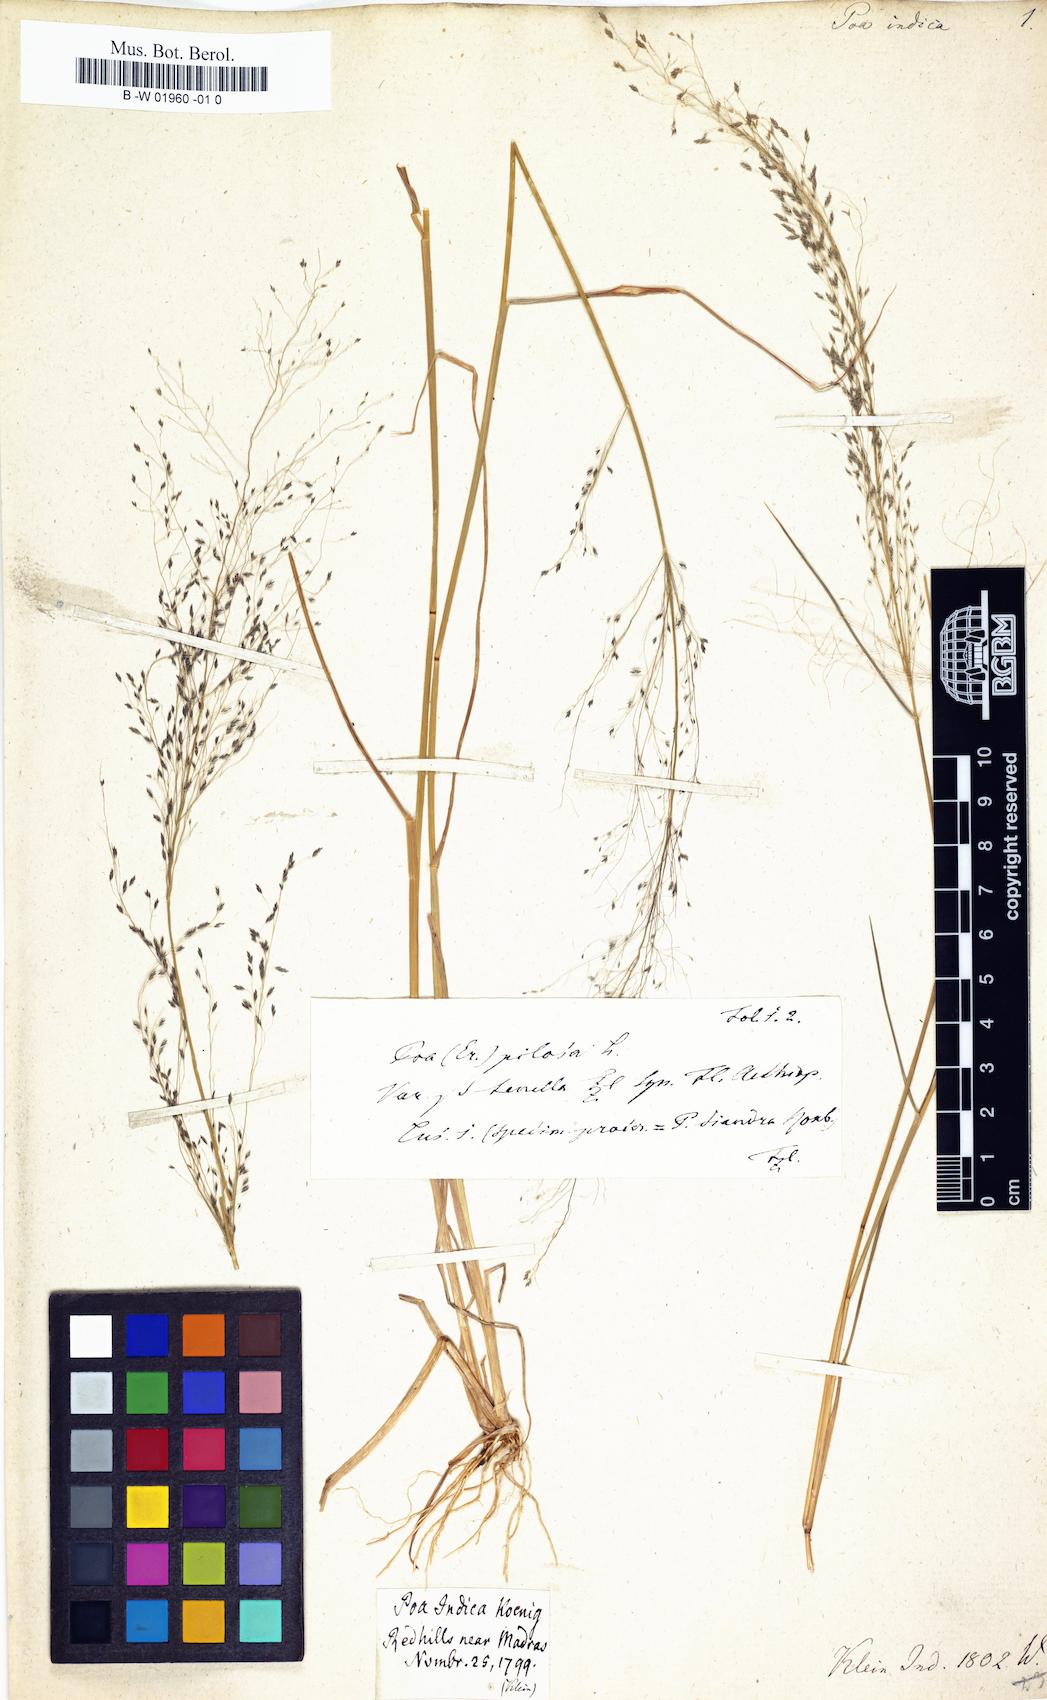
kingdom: Plantae
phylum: Tracheophyta
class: Liliopsida
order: Poales
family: Poaceae
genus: Eragrostis
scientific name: Eragrostis
